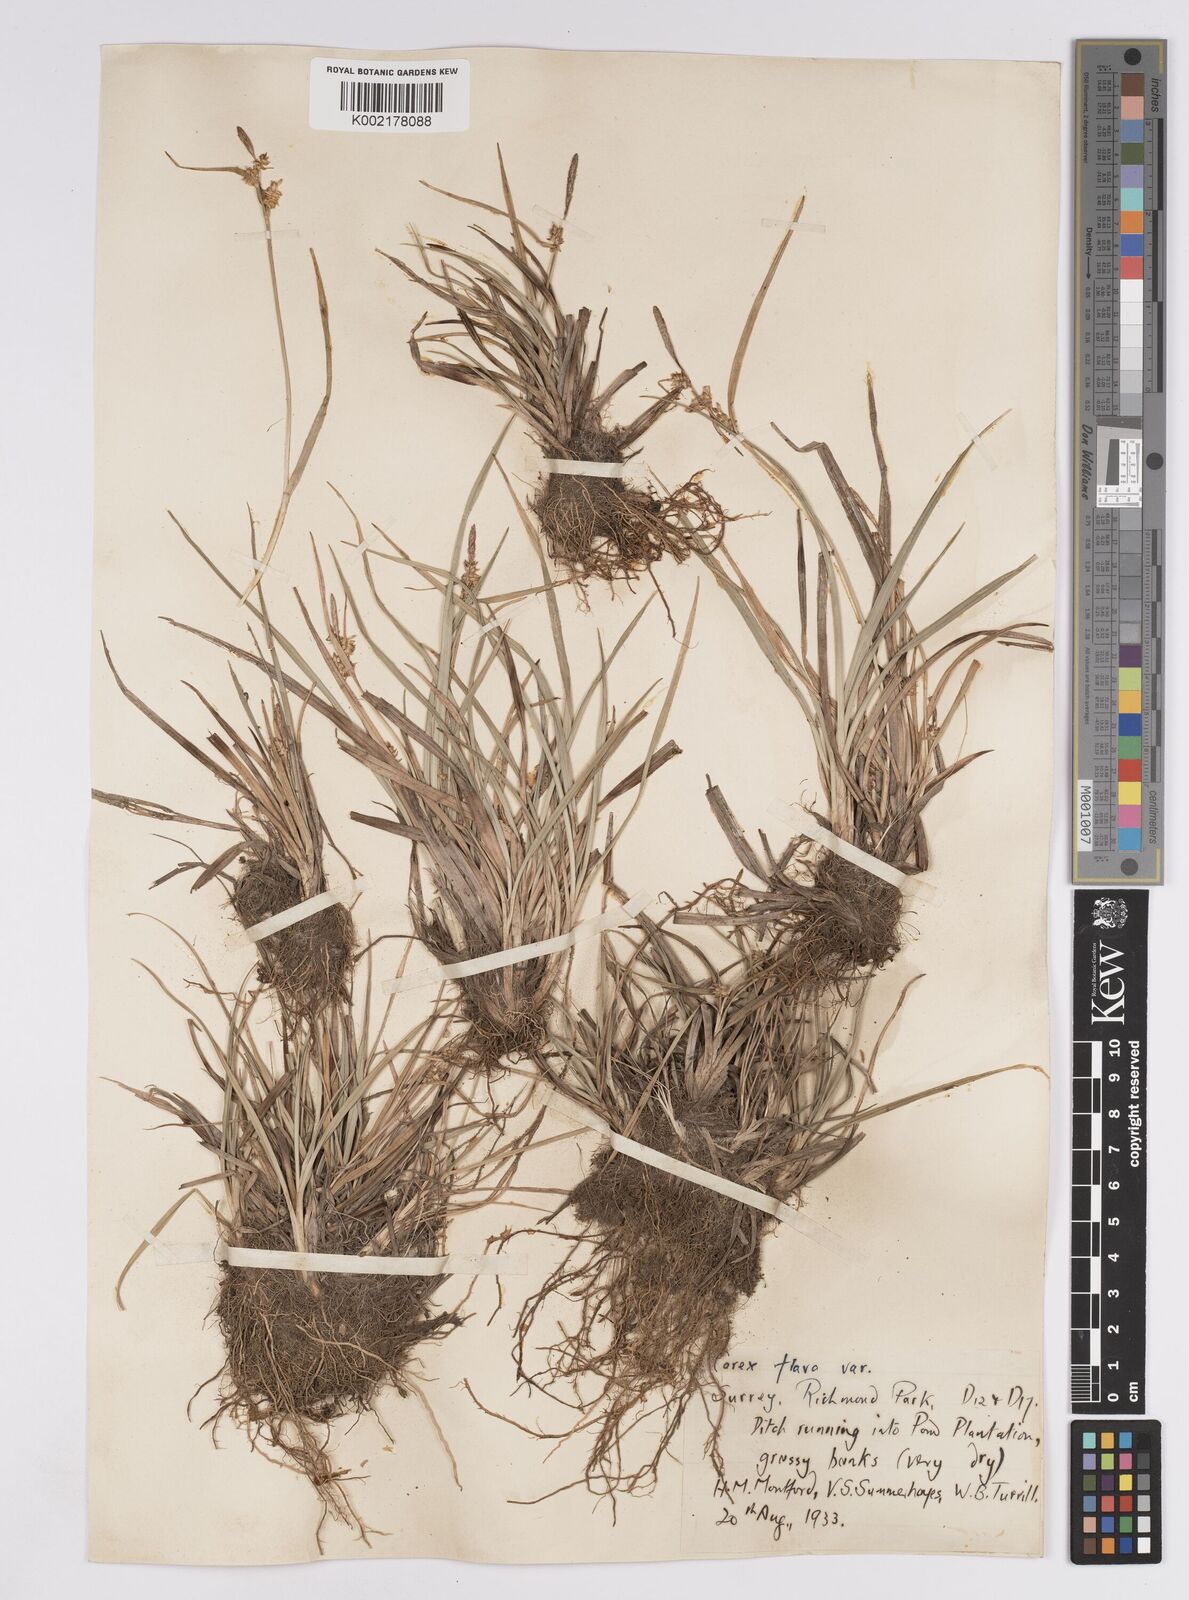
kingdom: Plantae
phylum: Tracheophyta
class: Liliopsida
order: Poales
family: Cyperaceae
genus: Carex
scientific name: Carex demissa
